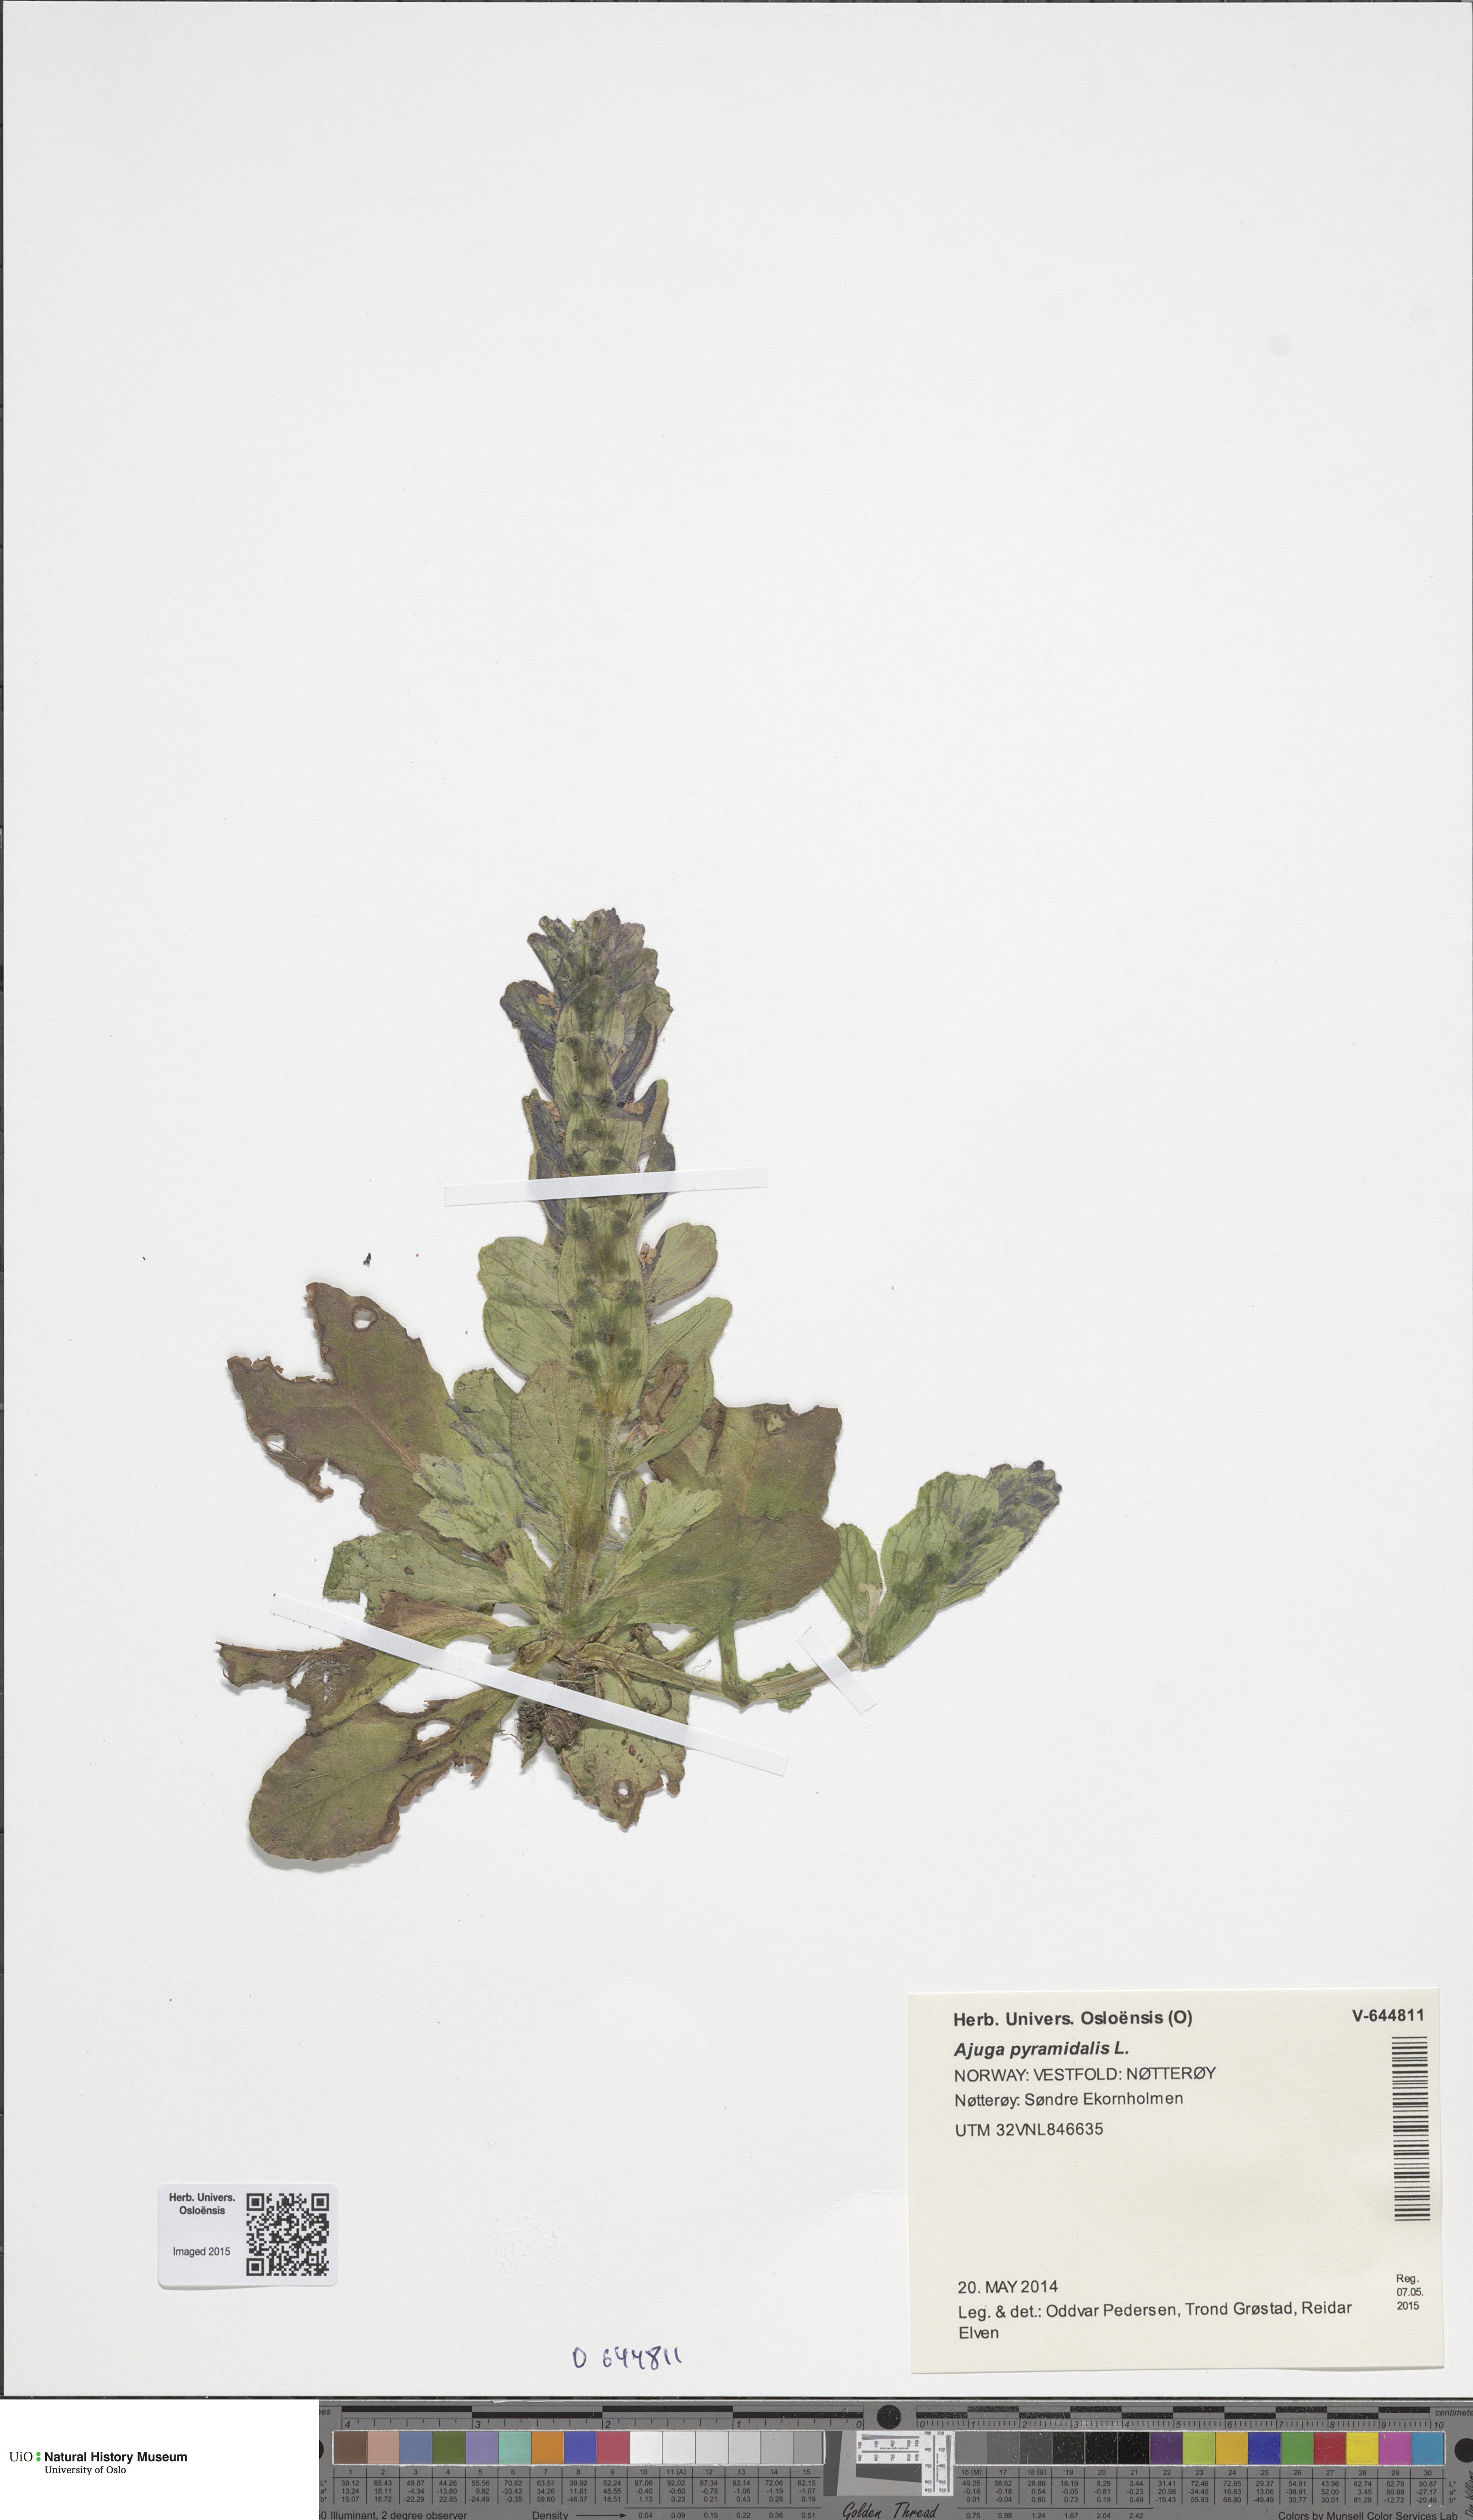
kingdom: Plantae
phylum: Tracheophyta
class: Magnoliopsida
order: Lamiales
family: Lamiaceae
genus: Ajuga
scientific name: Ajuga pyramidalis
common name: Pyramid bugle
